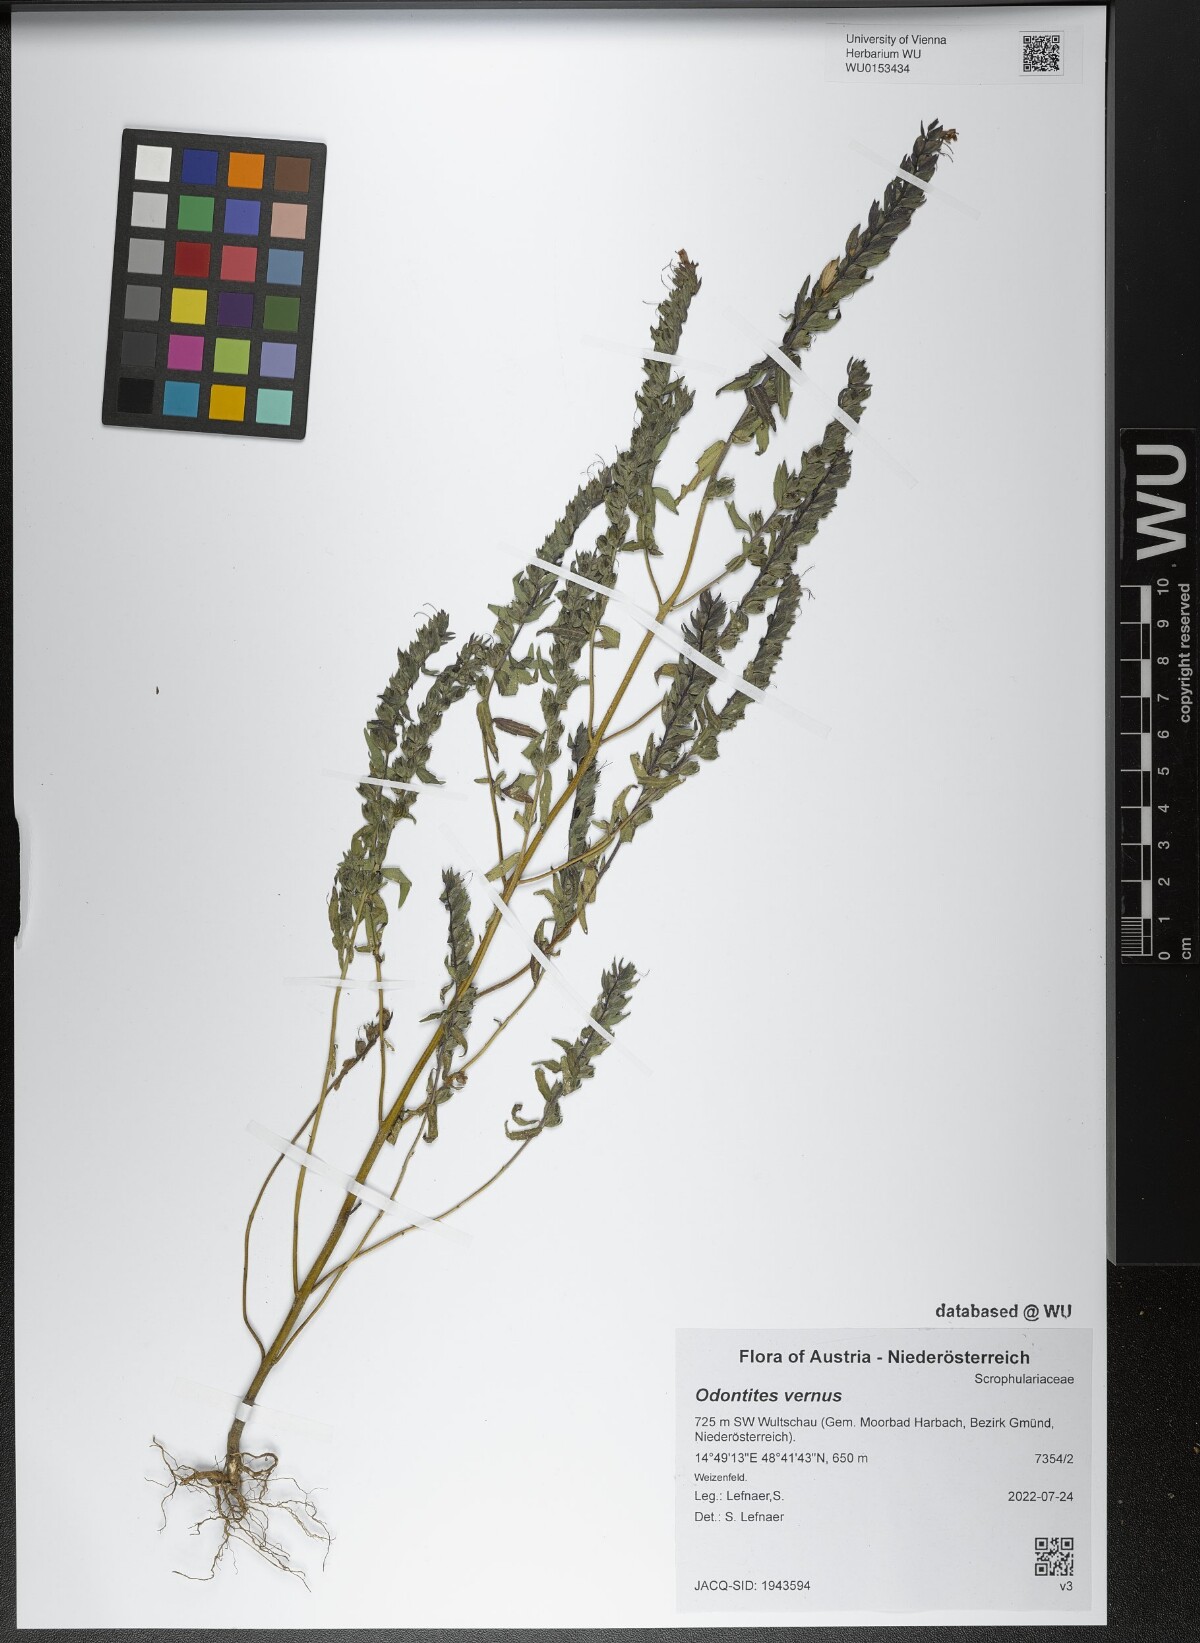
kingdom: Plantae
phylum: Tracheophyta
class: Magnoliopsida
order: Lamiales
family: Orobanchaceae
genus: Odontites
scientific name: Odontites vernus
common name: Red bartsia
